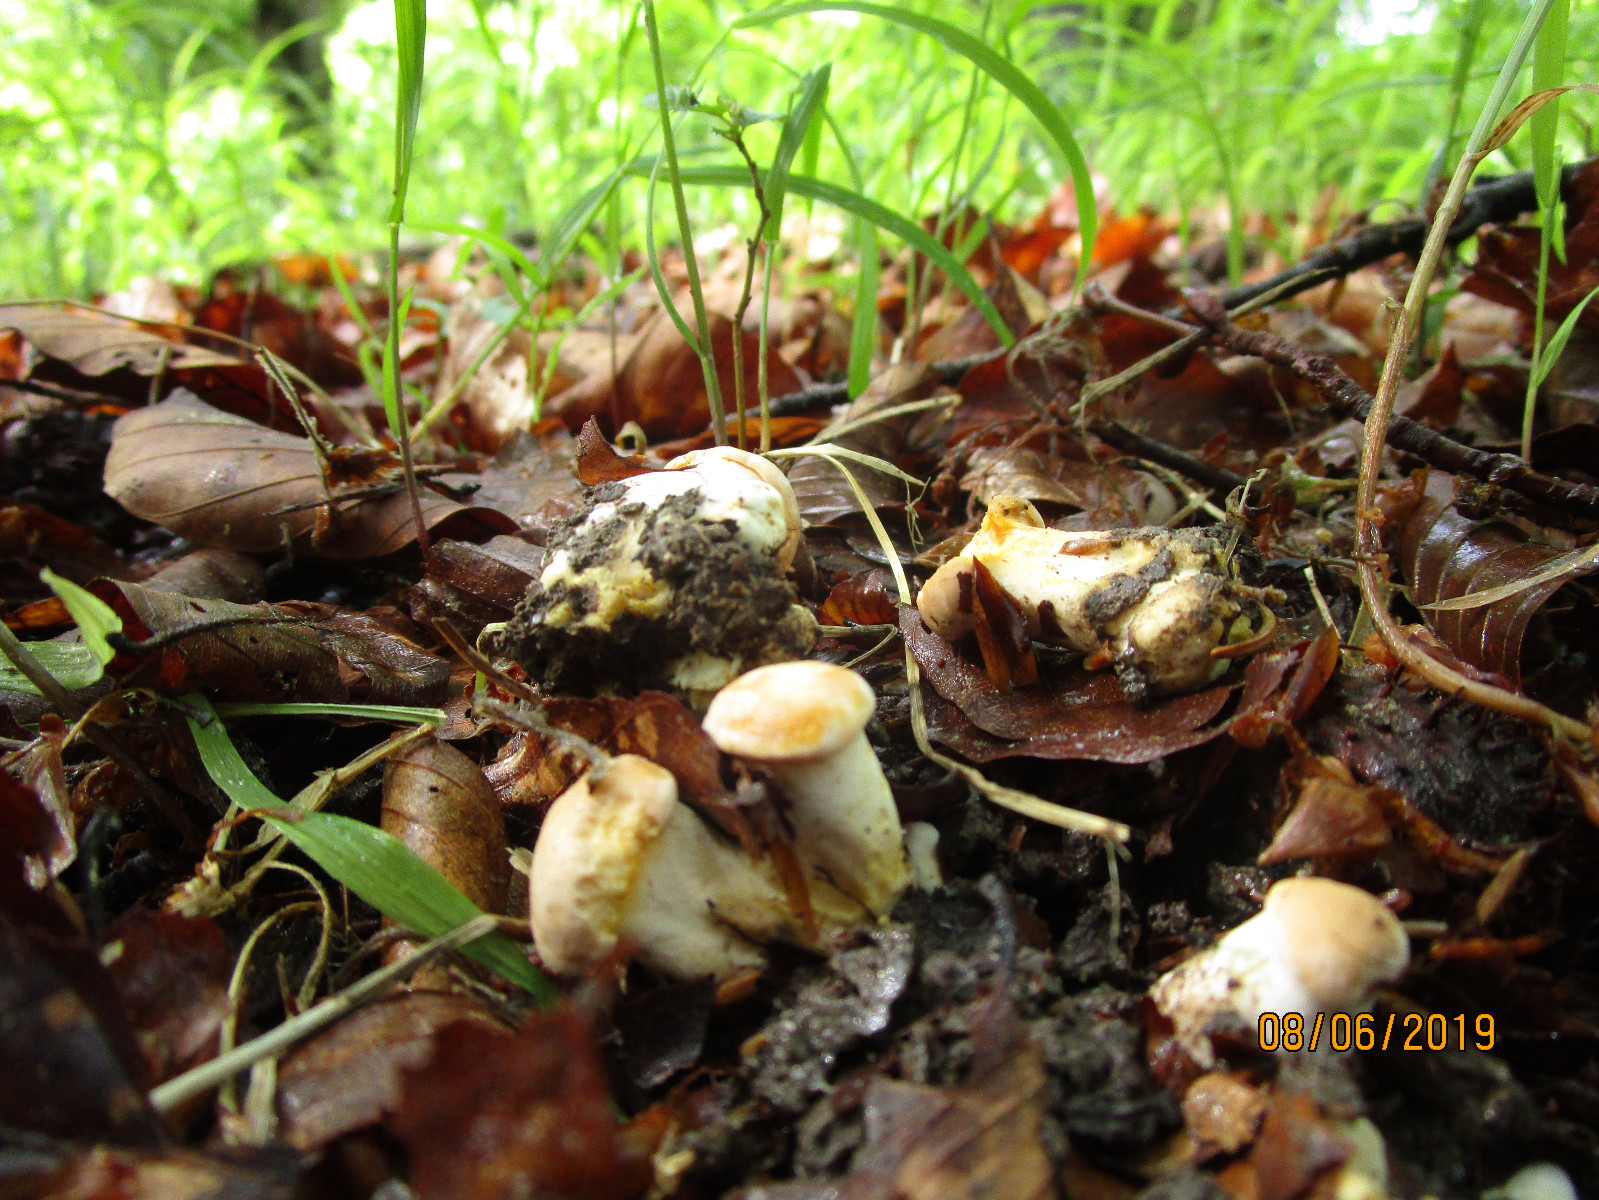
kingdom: Fungi
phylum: Basidiomycota
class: Agaricomycetes
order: Cantharellales
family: Hydnaceae
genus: Cantharellus
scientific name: Cantharellus pallens
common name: bleg kantarel
